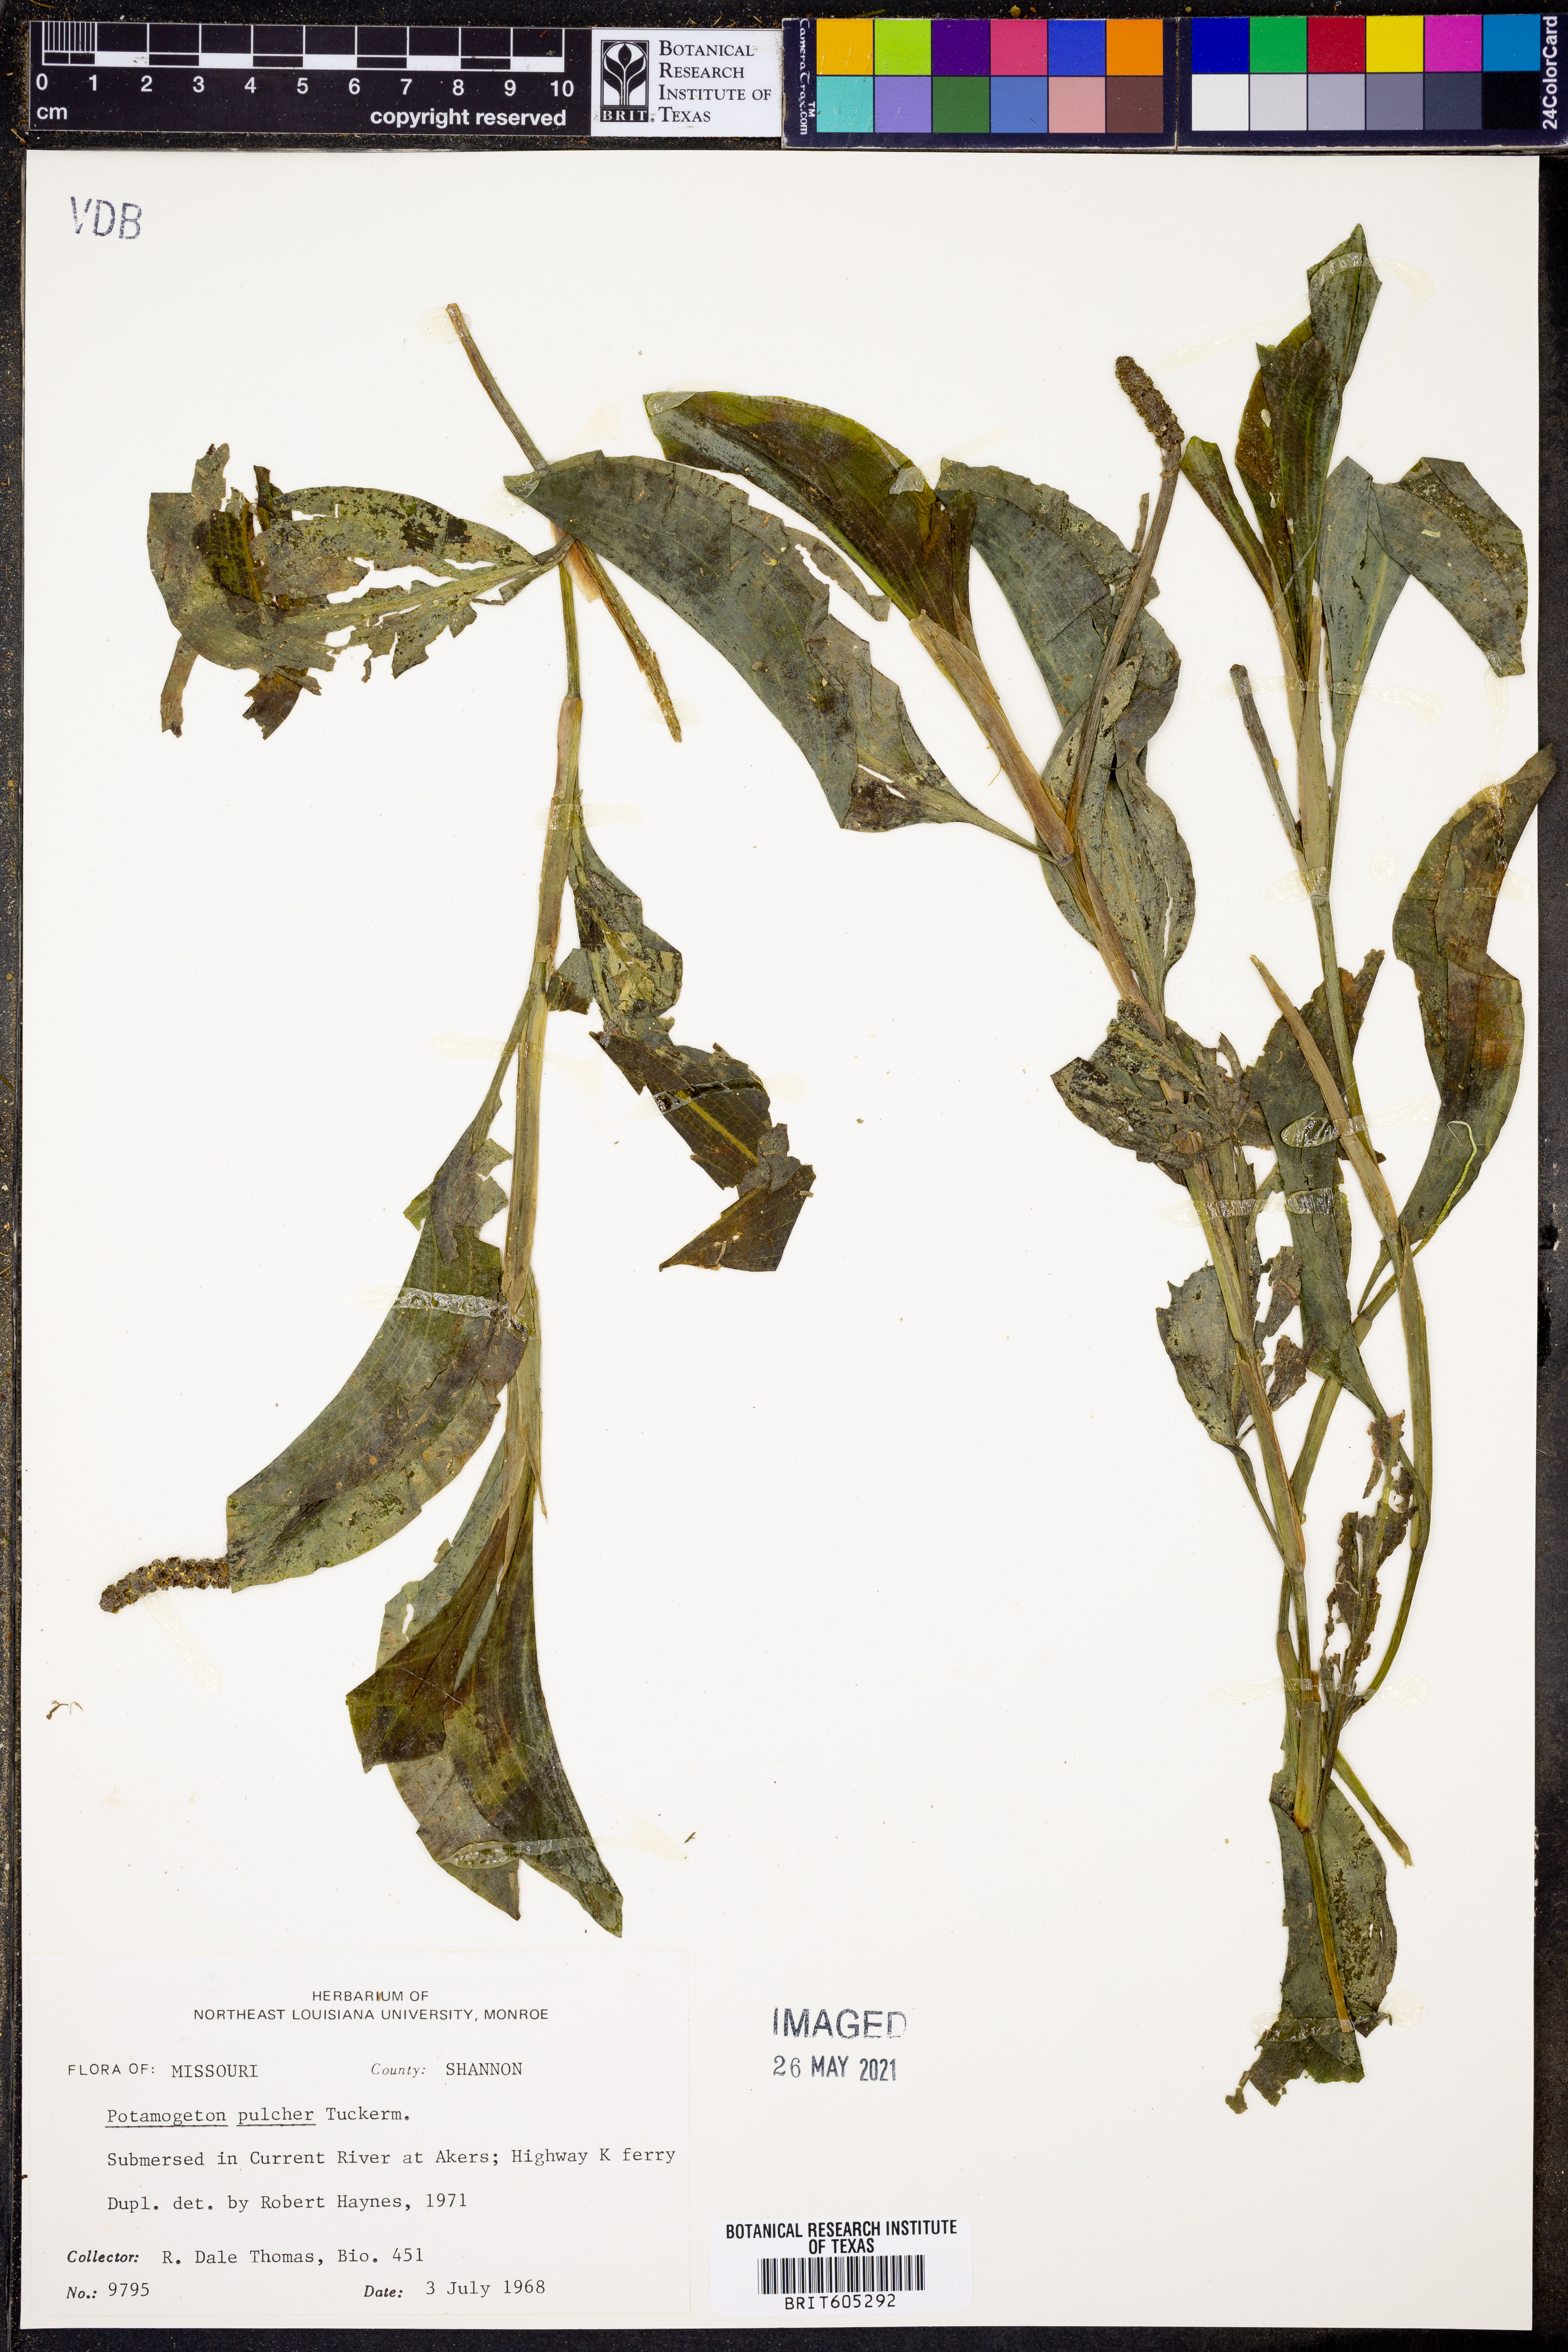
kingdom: Plantae
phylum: Tracheophyta
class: Liliopsida
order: Alismatales
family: Potamogetonaceae
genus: Potamogeton
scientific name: Potamogeton pulcher
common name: Heart-leaved pondweed
